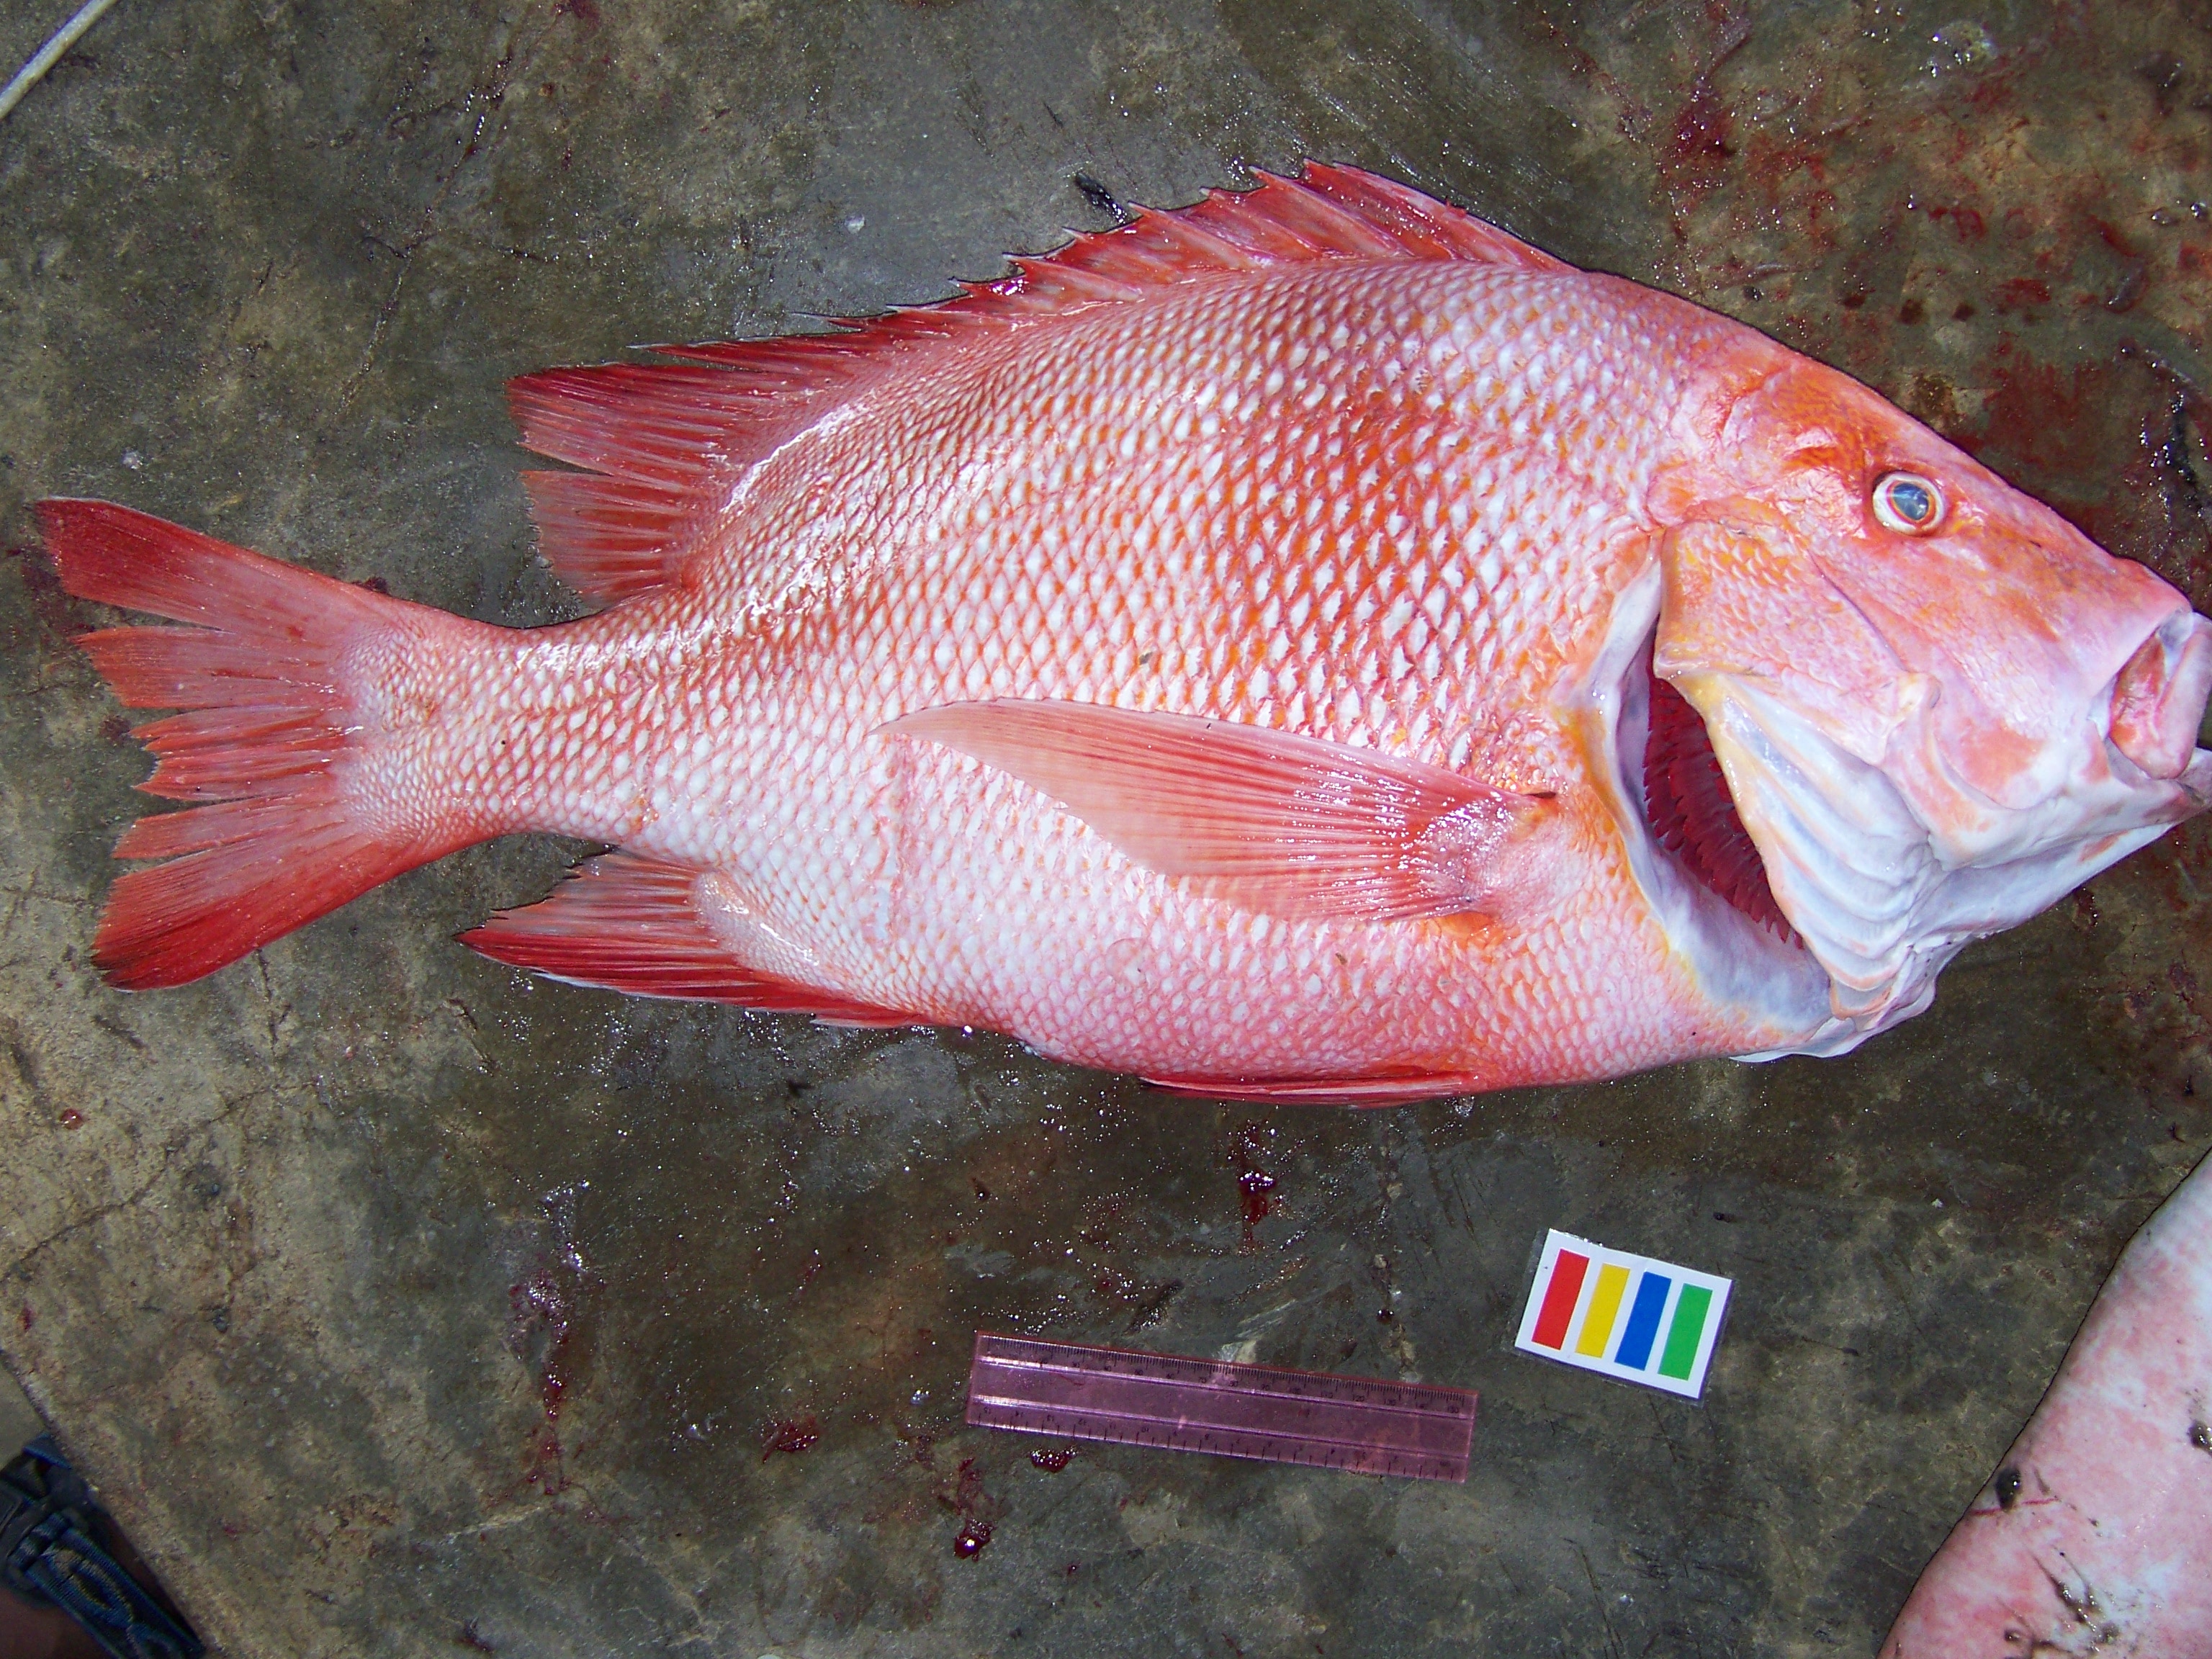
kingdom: Animalia
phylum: Chordata
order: Perciformes
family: Lutjanidae
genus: Lutjanus
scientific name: Lutjanus sebae
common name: Emperor red snapper
